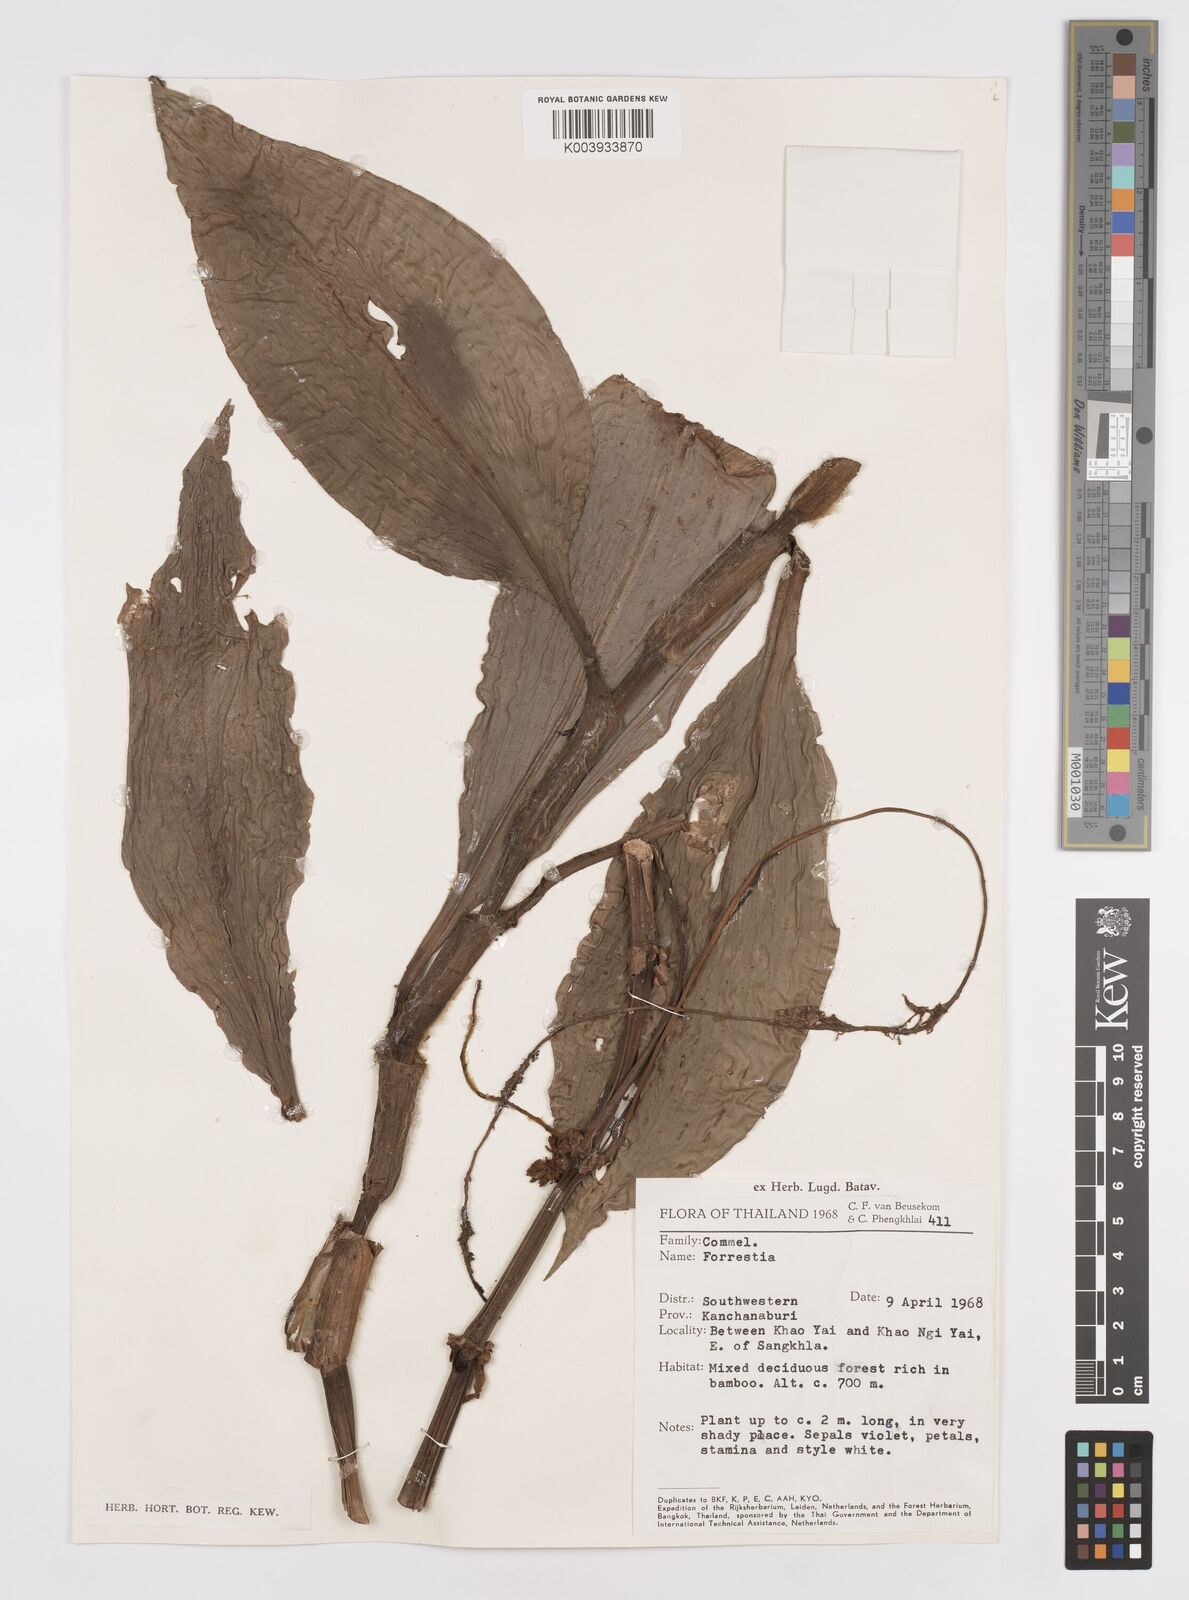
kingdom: Plantae
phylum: Tracheophyta
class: Liliopsida
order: Commelinales
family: Commelinaceae
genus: Amischotolype
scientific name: Amischotolype
